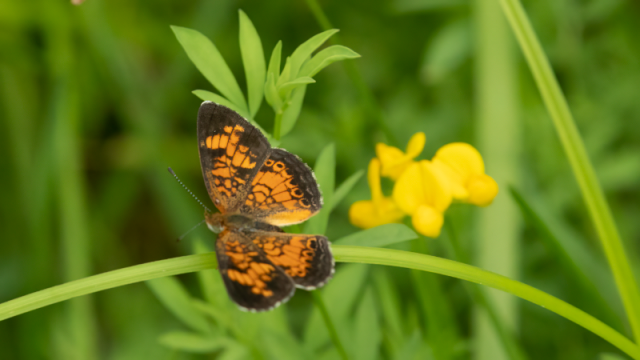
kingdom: Animalia
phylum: Arthropoda
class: Insecta
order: Lepidoptera
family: Nymphalidae
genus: Phyciodes
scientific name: Phyciodes tharos
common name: Pearl Crescent
